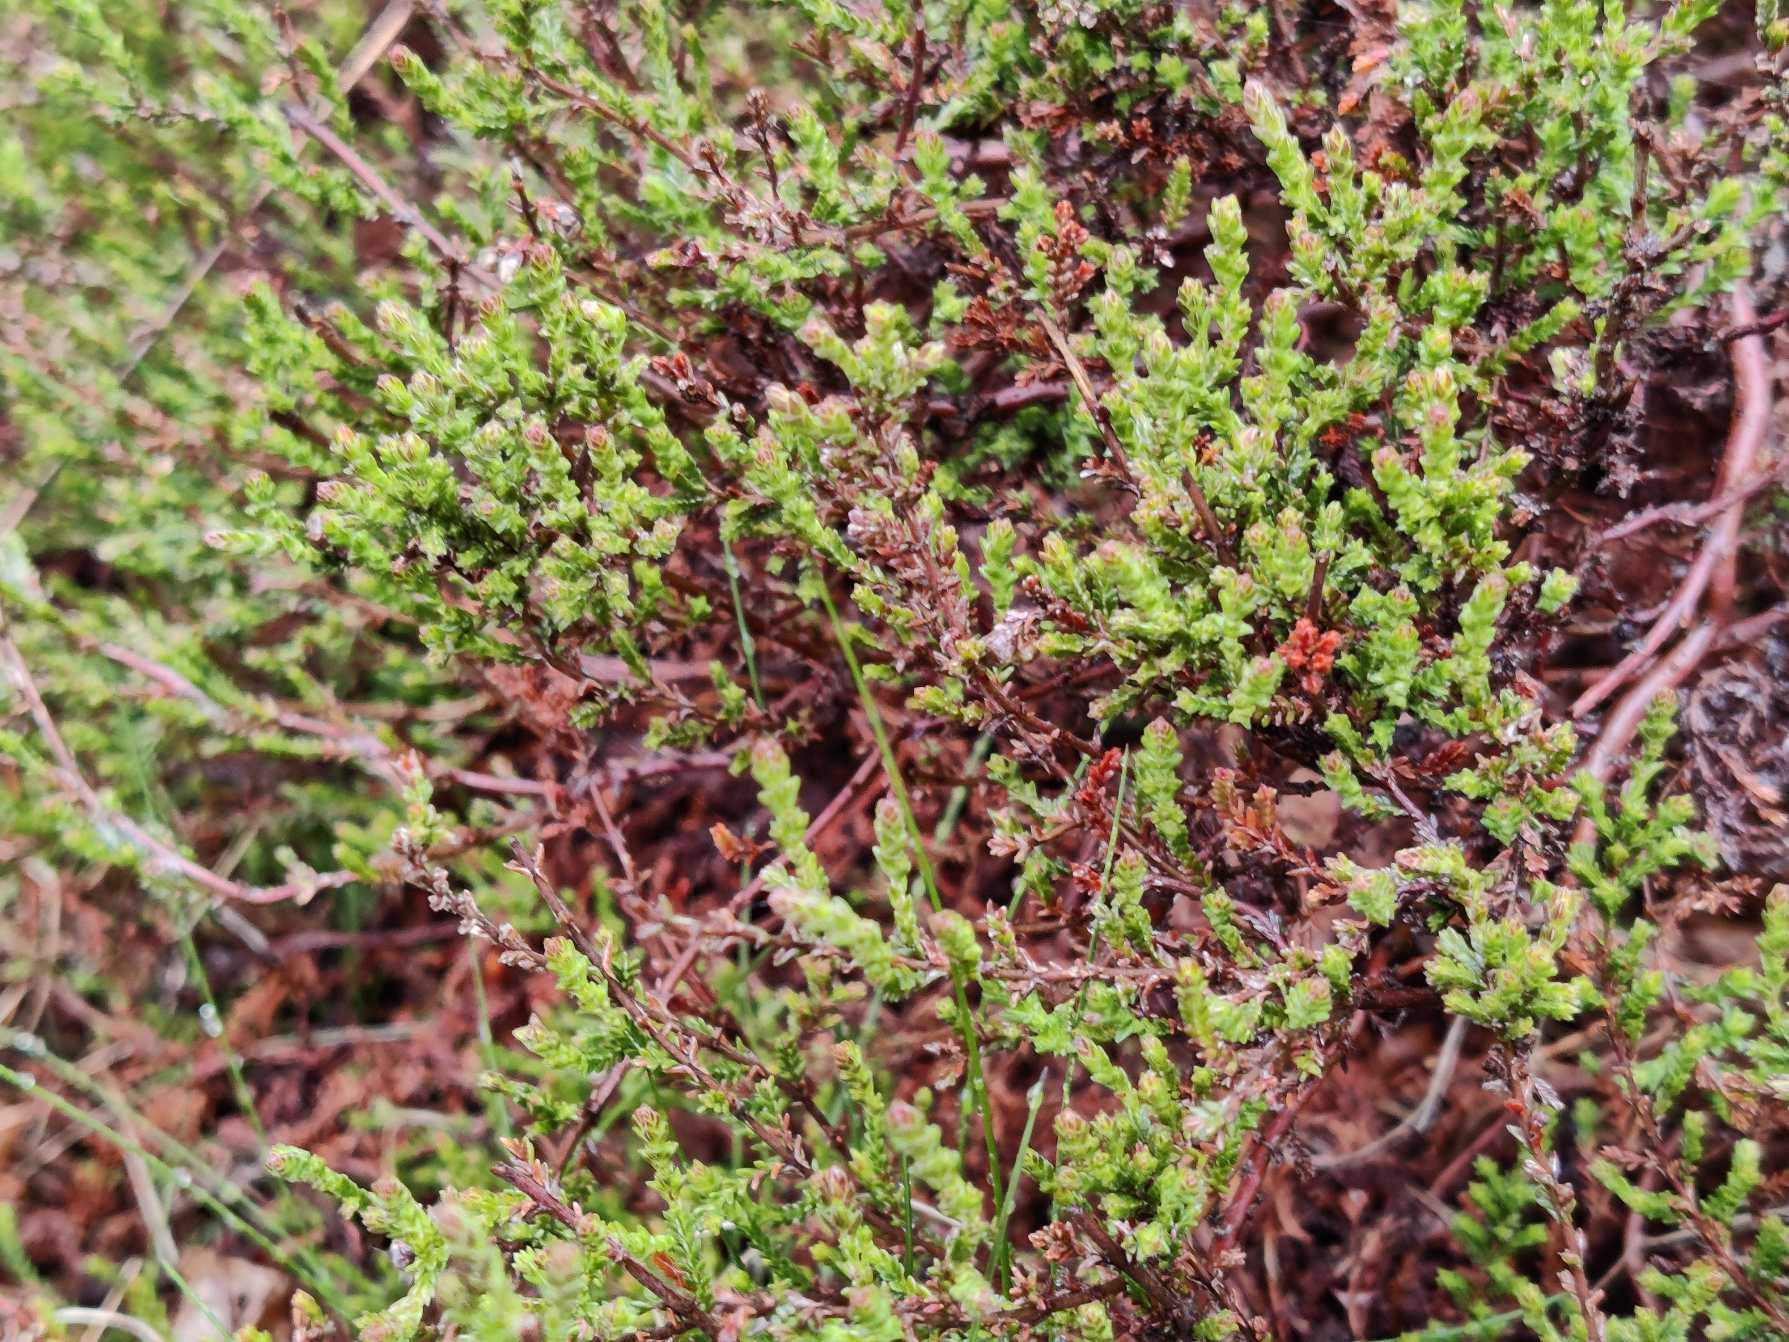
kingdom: Plantae
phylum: Tracheophyta
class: Magnoliopsida
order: Ericales
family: Ericaceae
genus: Calluna
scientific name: Calluna vulgaris
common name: Hedelyng
